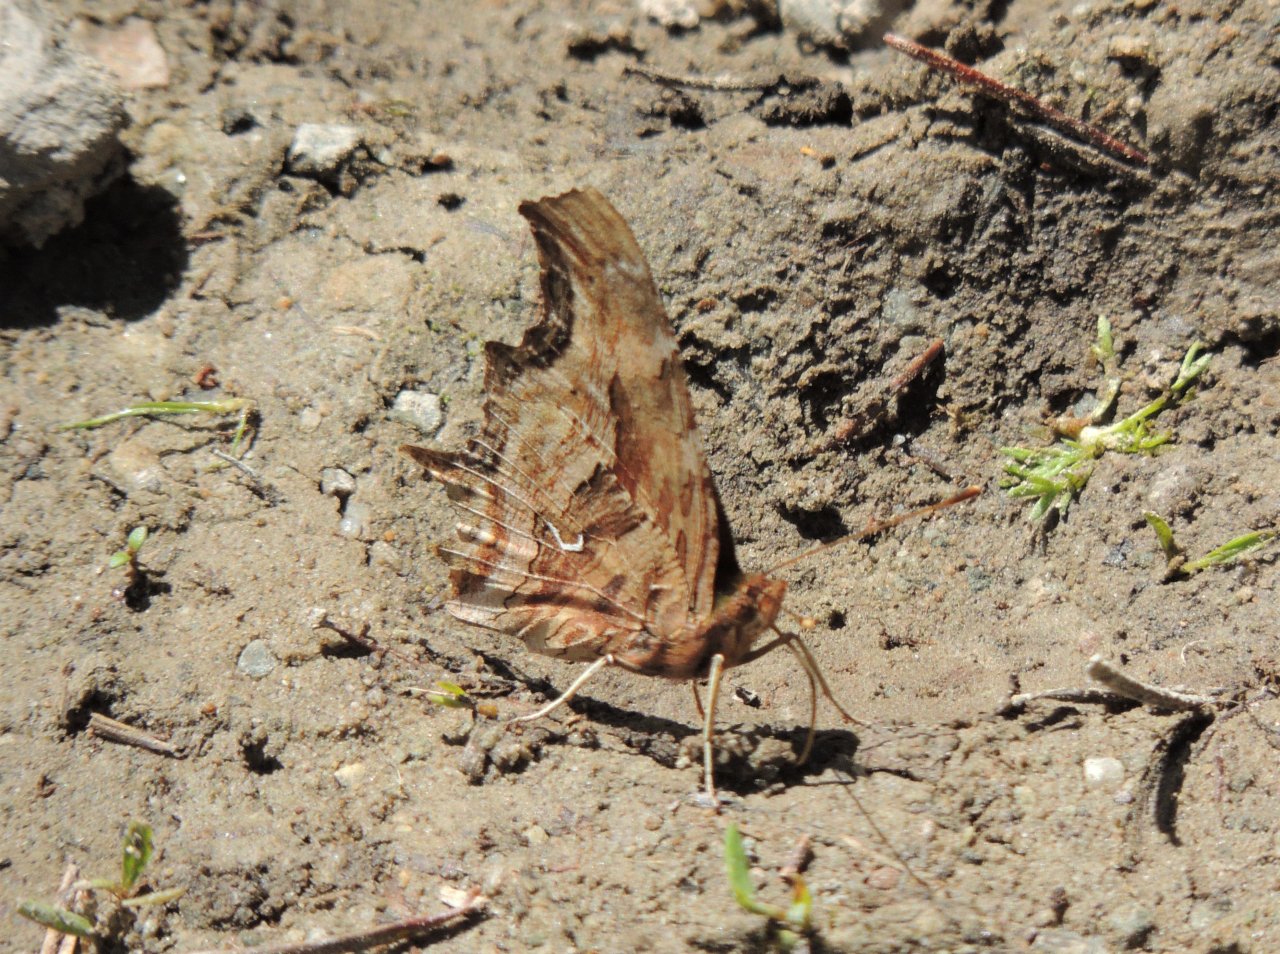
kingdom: Animalia
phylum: Arthropoda
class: Insecta
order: Lepidoptera
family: Nymphalidae
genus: Polygonia
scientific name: Polygonia satyrus
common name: Satyr Comma
